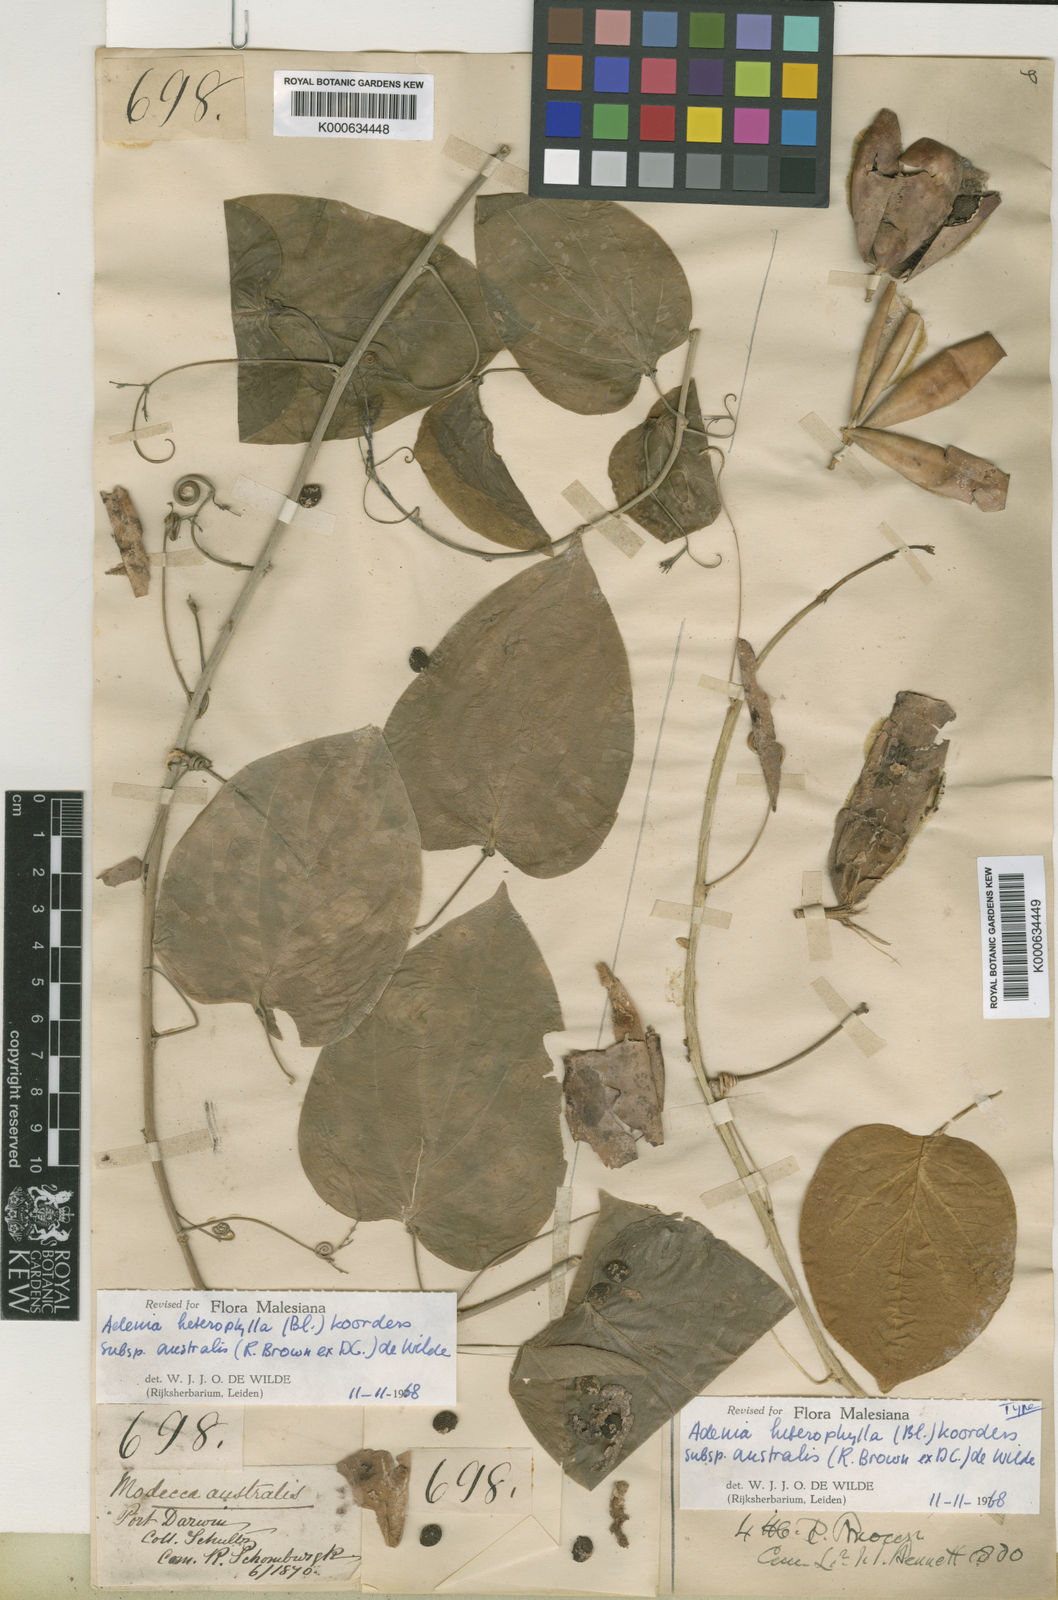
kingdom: Plantae
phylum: Tracheophyta
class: Magnoliopsida
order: Malpighiales
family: Passifloraceae
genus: Adenia
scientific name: Adenia heterophylla
